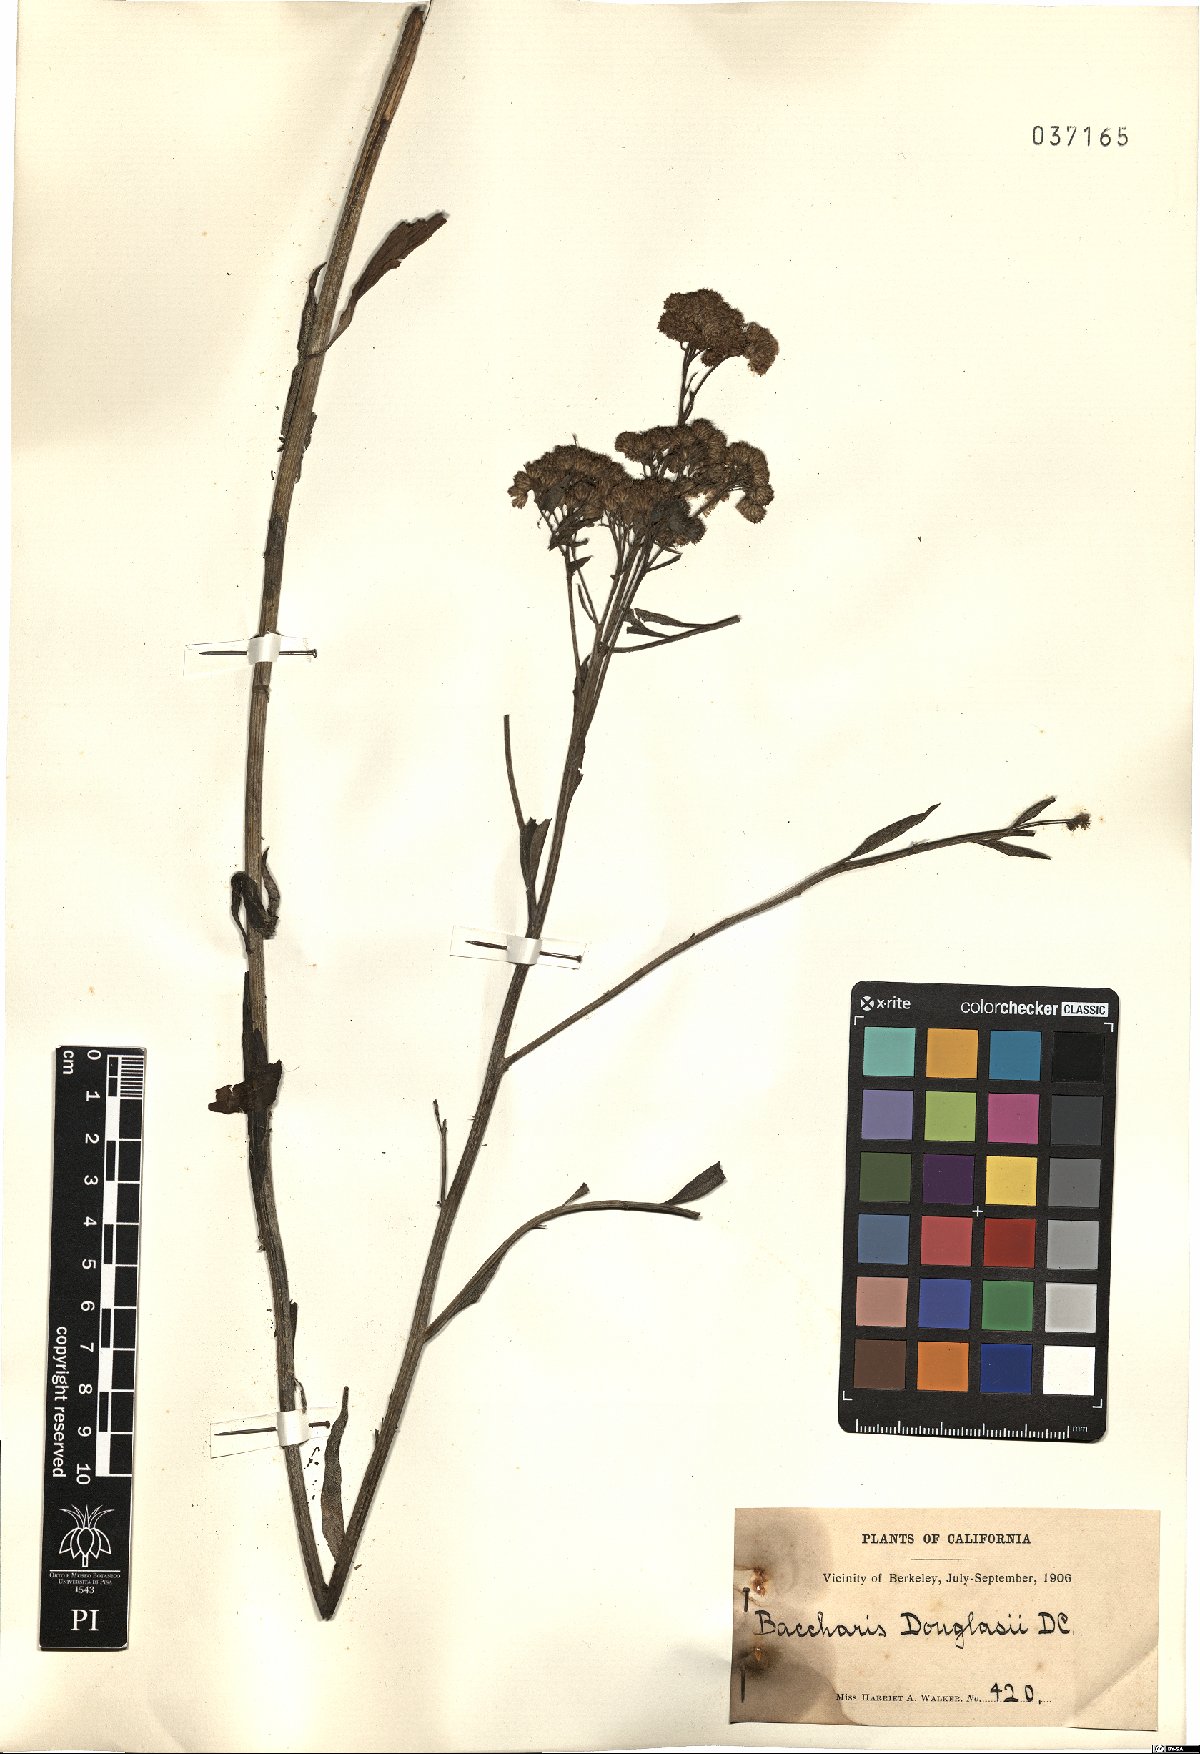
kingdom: Plantae
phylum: Tracheophyta
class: Magnoliopsida
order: Asterales
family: Asteraceae
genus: Baccharis
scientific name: Baccharis douglasii
